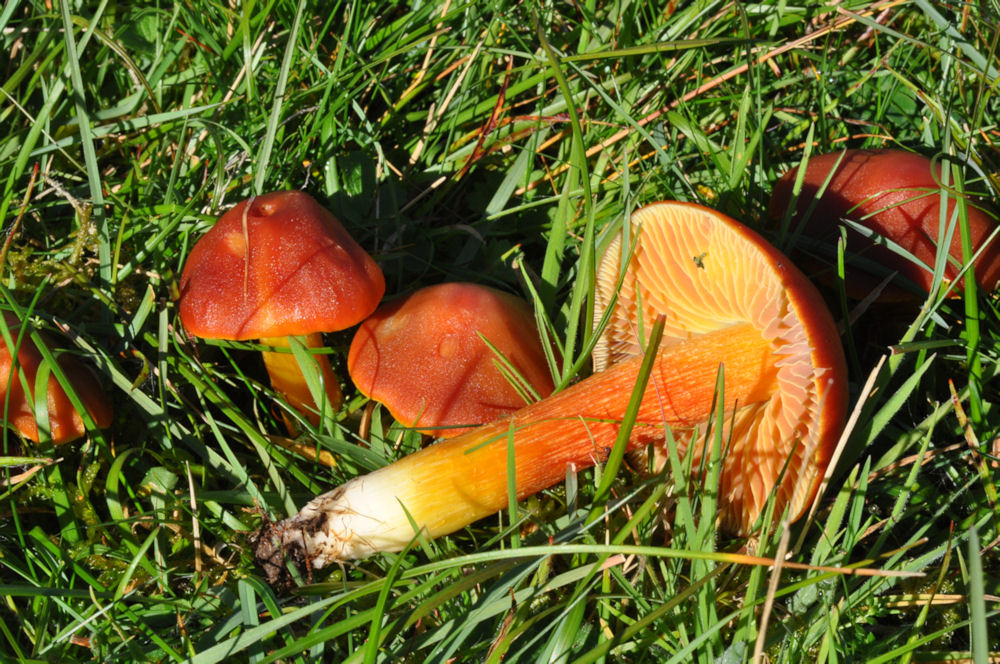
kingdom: Fungi
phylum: Basidiomycota
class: Agaricomycetes
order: Agaricales
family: Hygrophoraceae
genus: Hygrocybe
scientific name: Hygrocybe punicea
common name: skarlagen-vokshat
